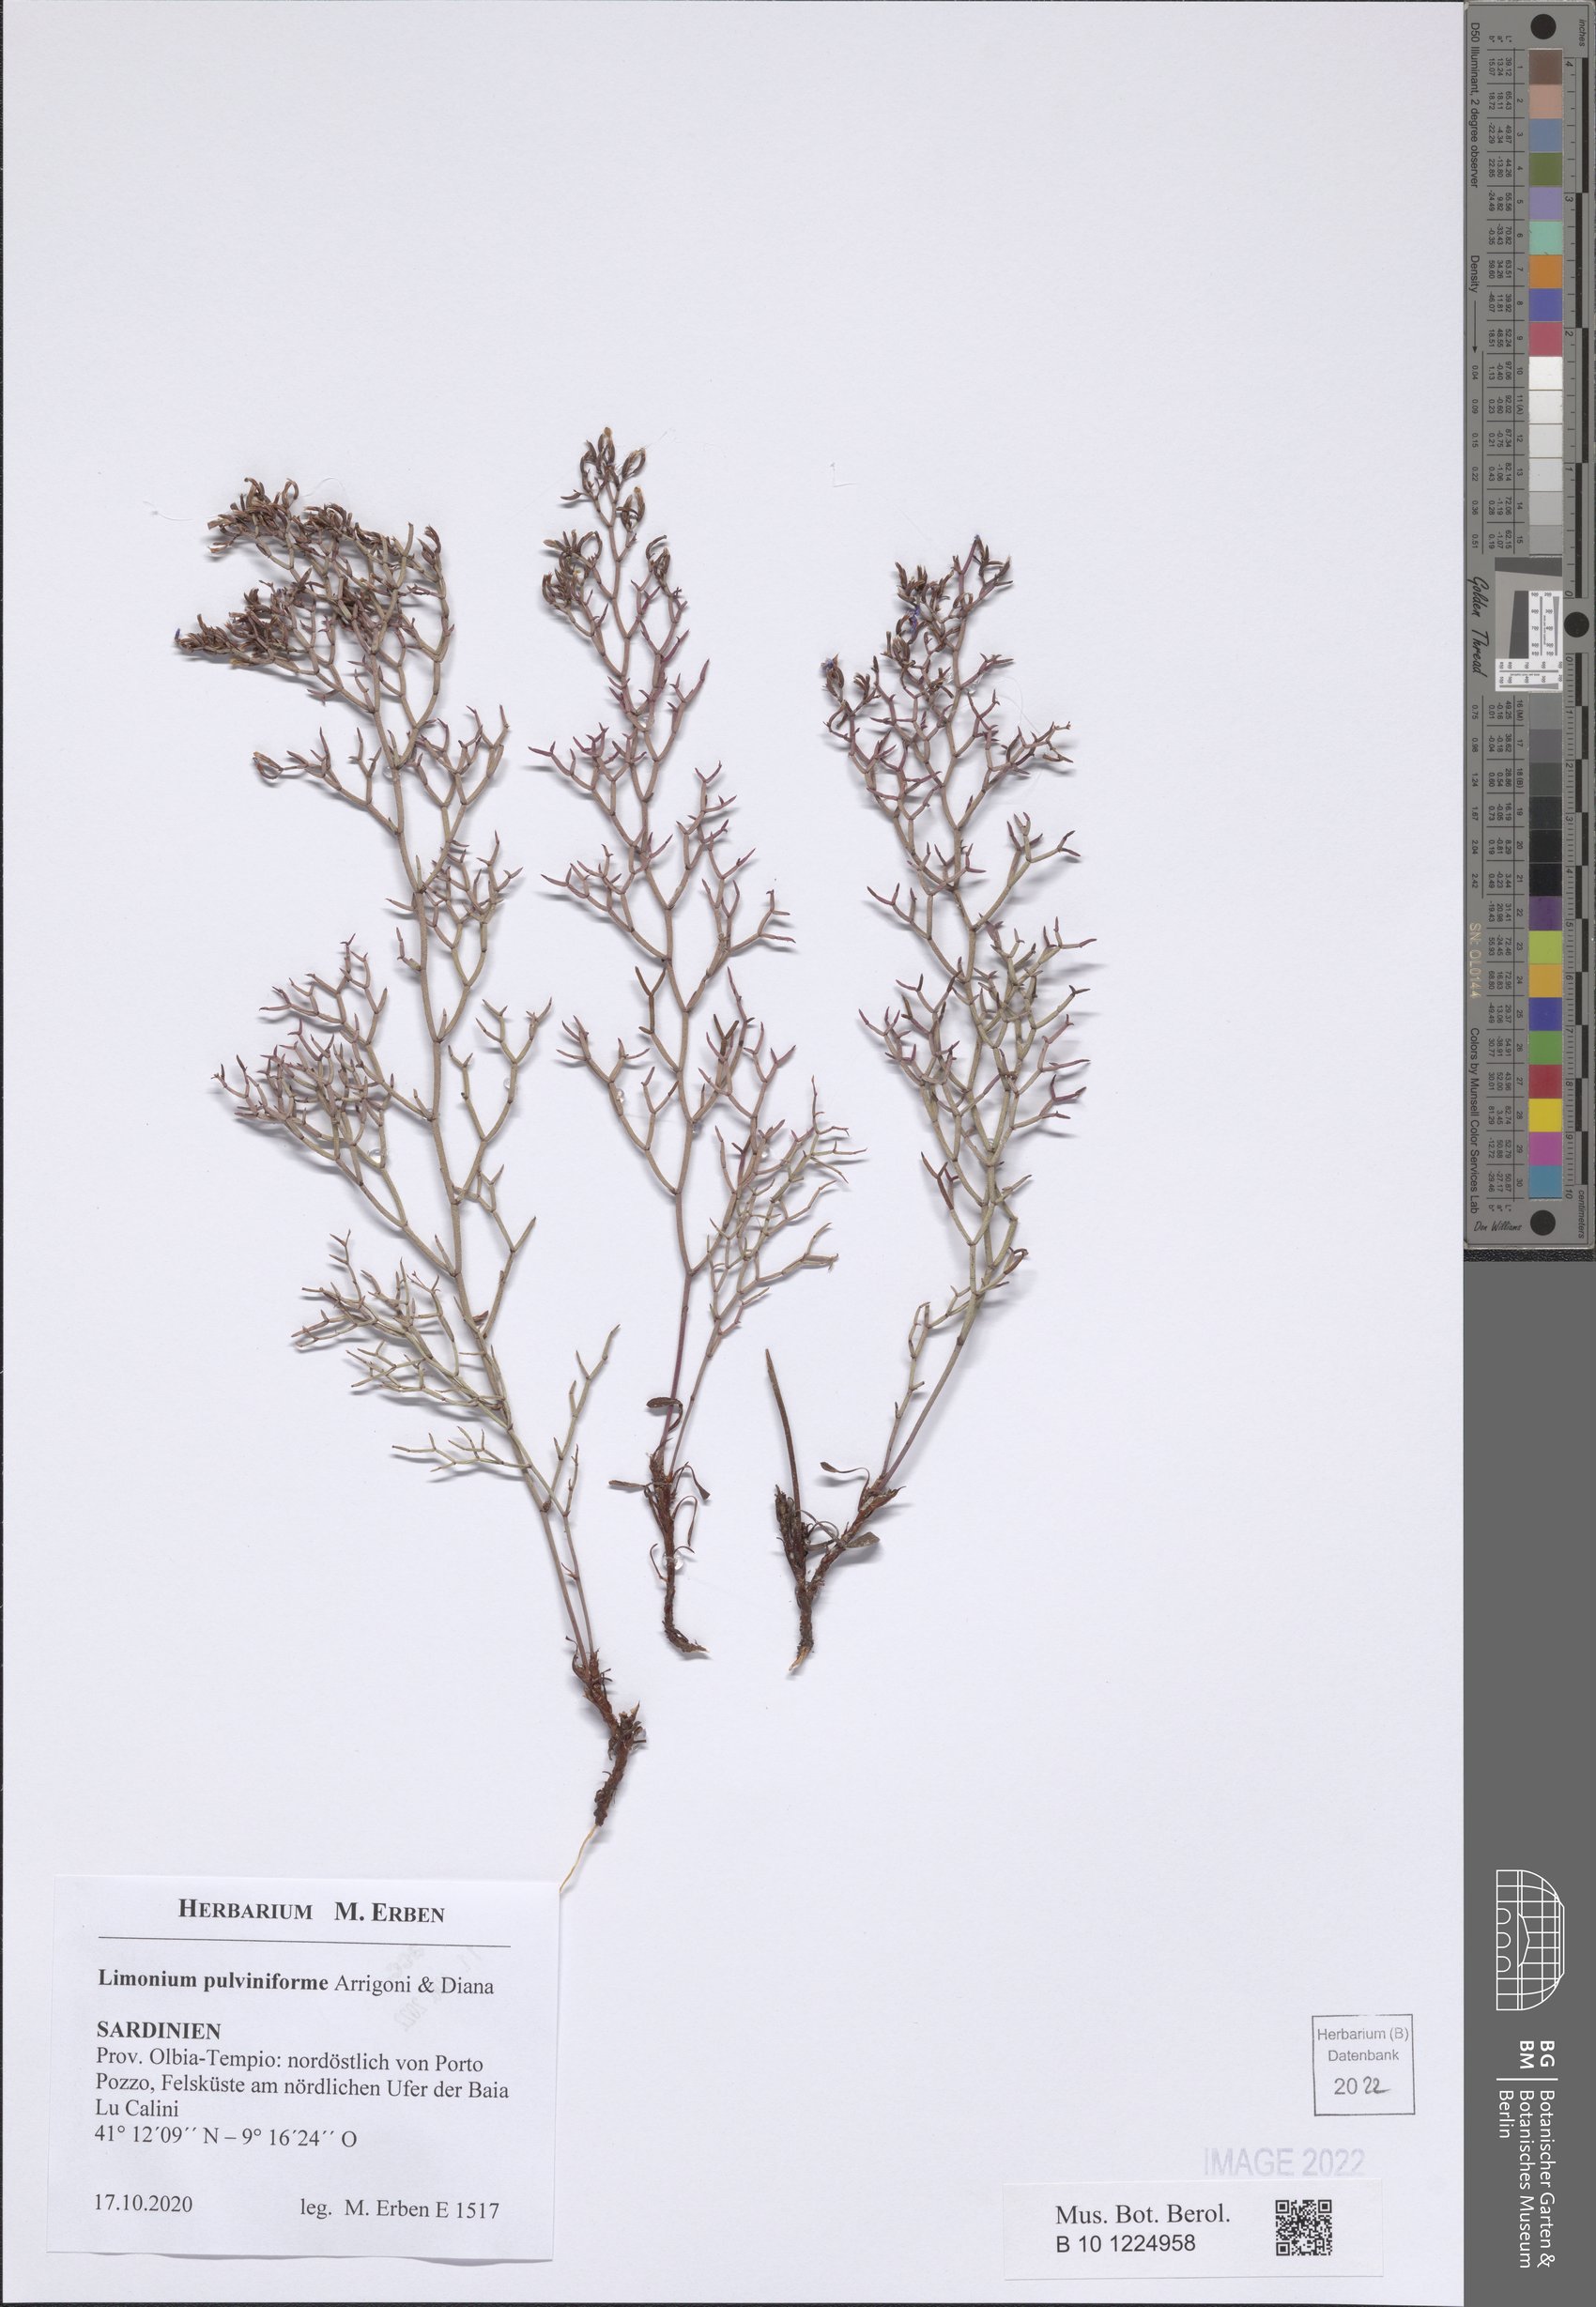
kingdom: Plantae
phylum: Tracheophyta
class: Magnoliopsida
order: Caryophyllales
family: Plumbaginaceae
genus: Limonium
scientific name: Limonium pulviniforme
